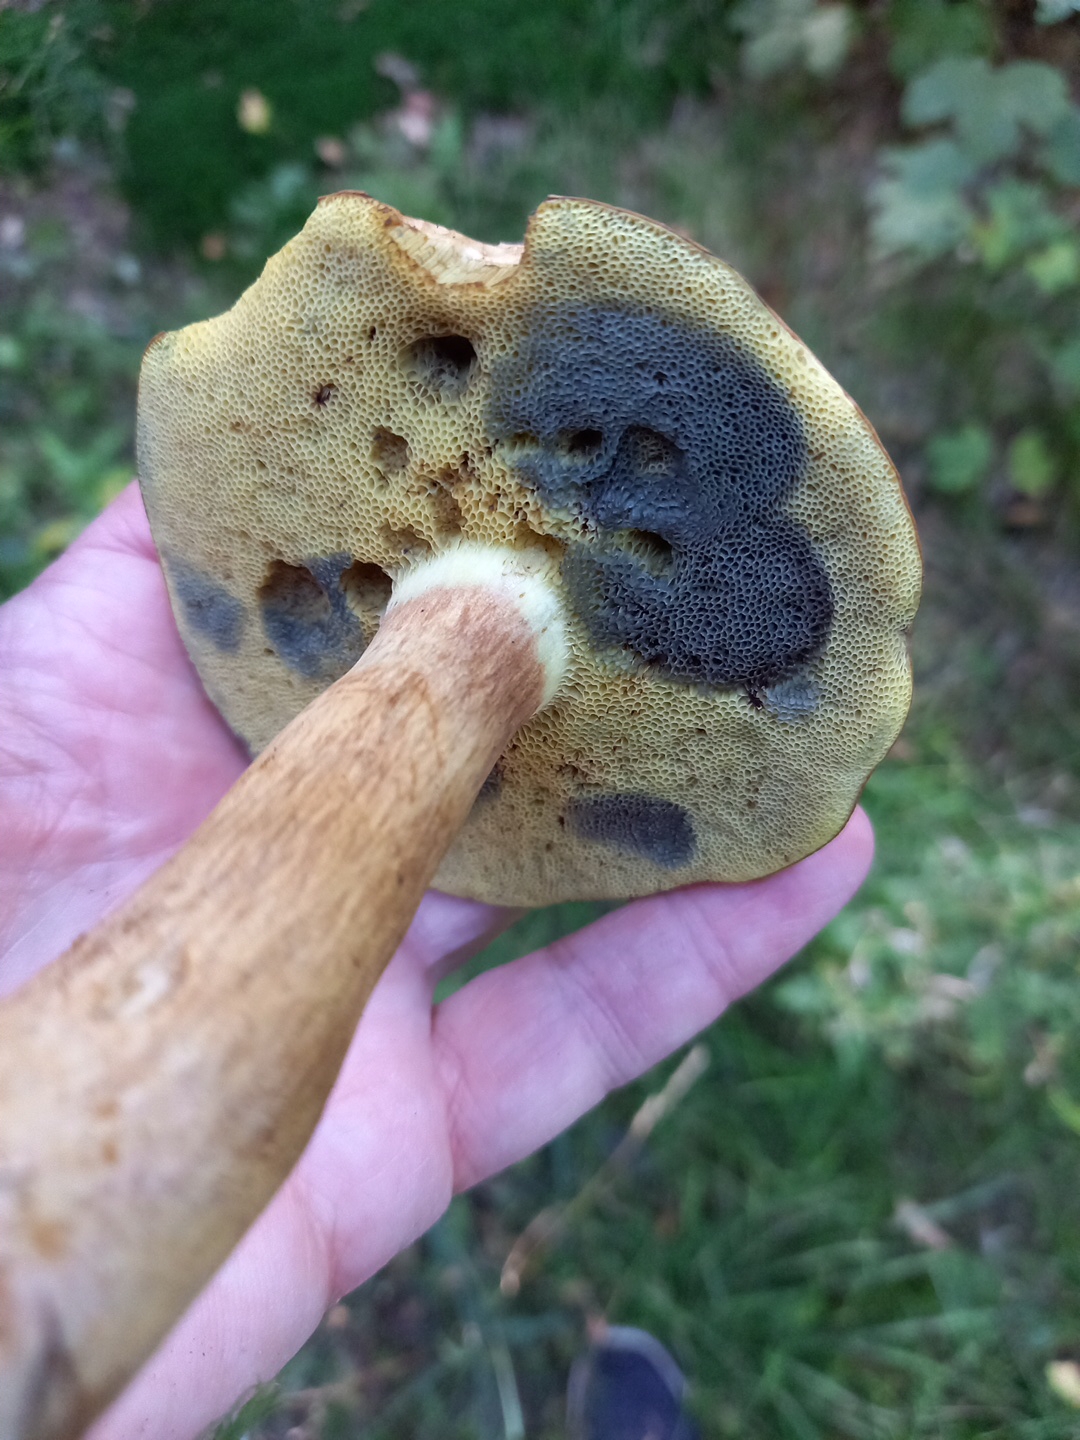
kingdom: Fungi
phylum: Basidiomycota
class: Agaricomycetes
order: Boletales
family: Boletaceae
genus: Imleria
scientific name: Imleria badia
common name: brunstokket rørhat
